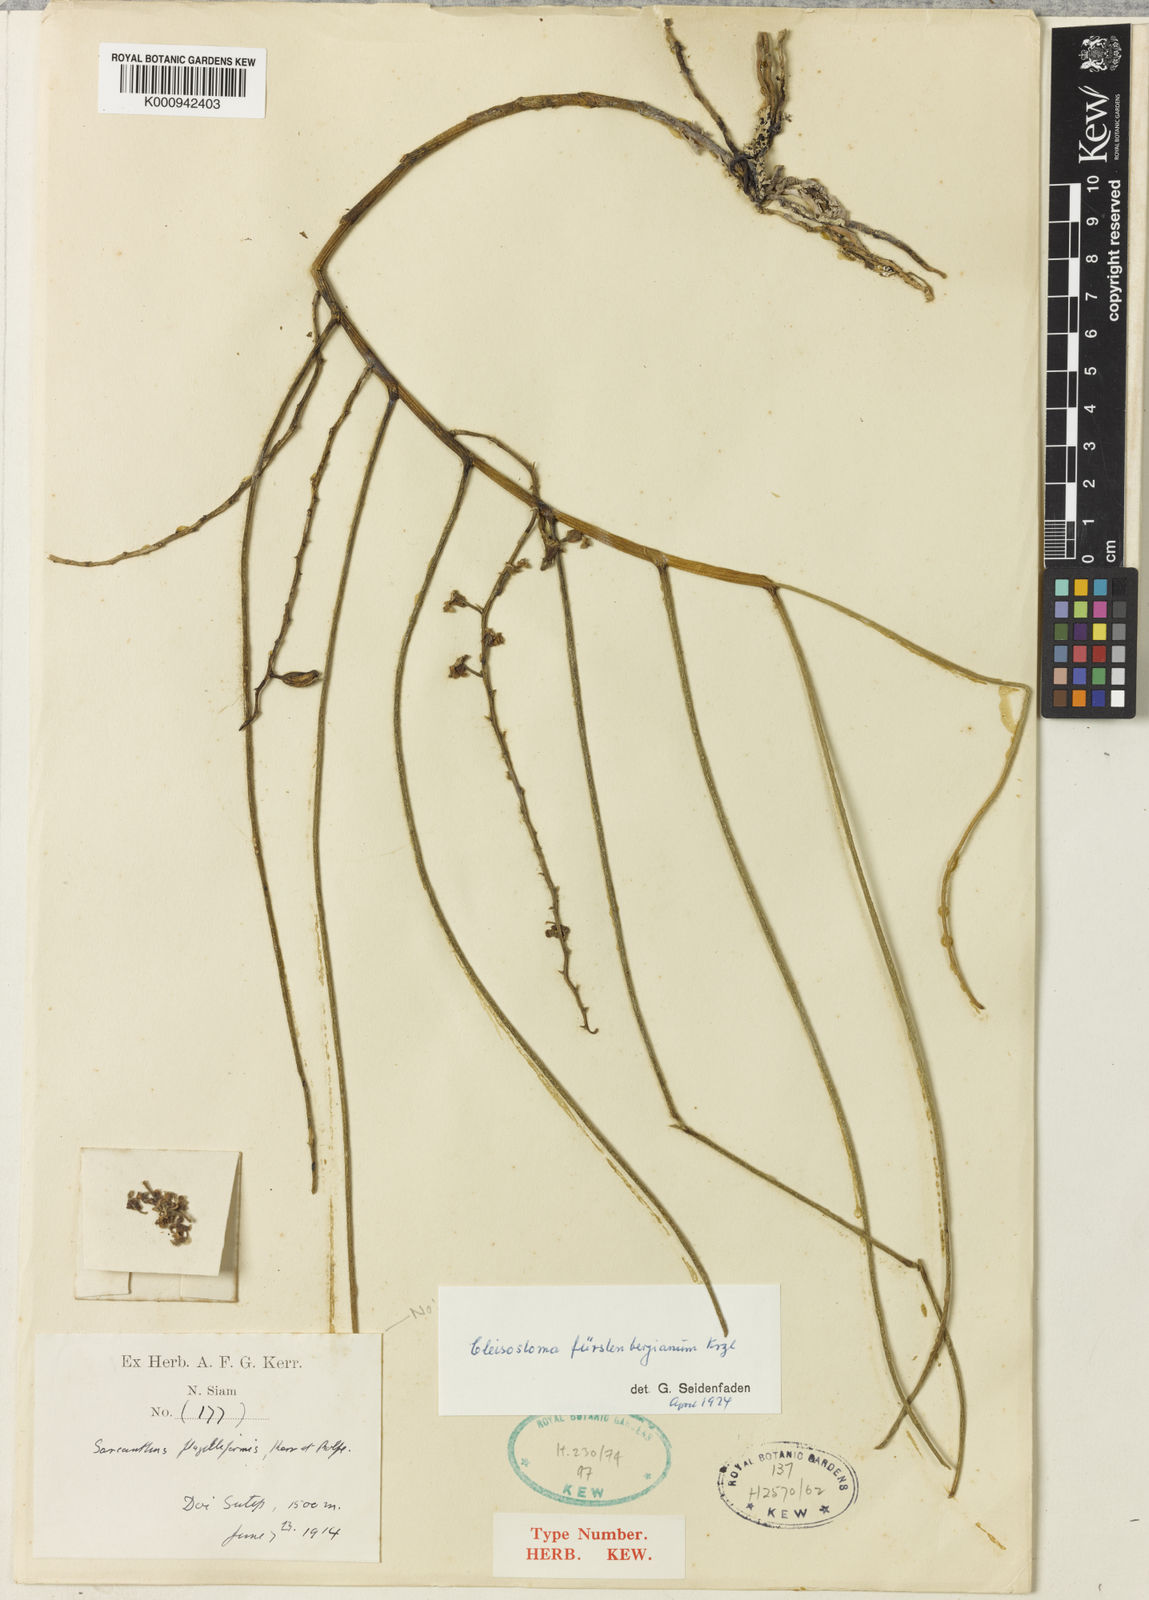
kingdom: Plantae
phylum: Tracheophyta
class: Liliopsida
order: Asparagales
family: Orchidaceae
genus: Cleisostoma
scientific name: Cleisostoma fuerstenbergianum
